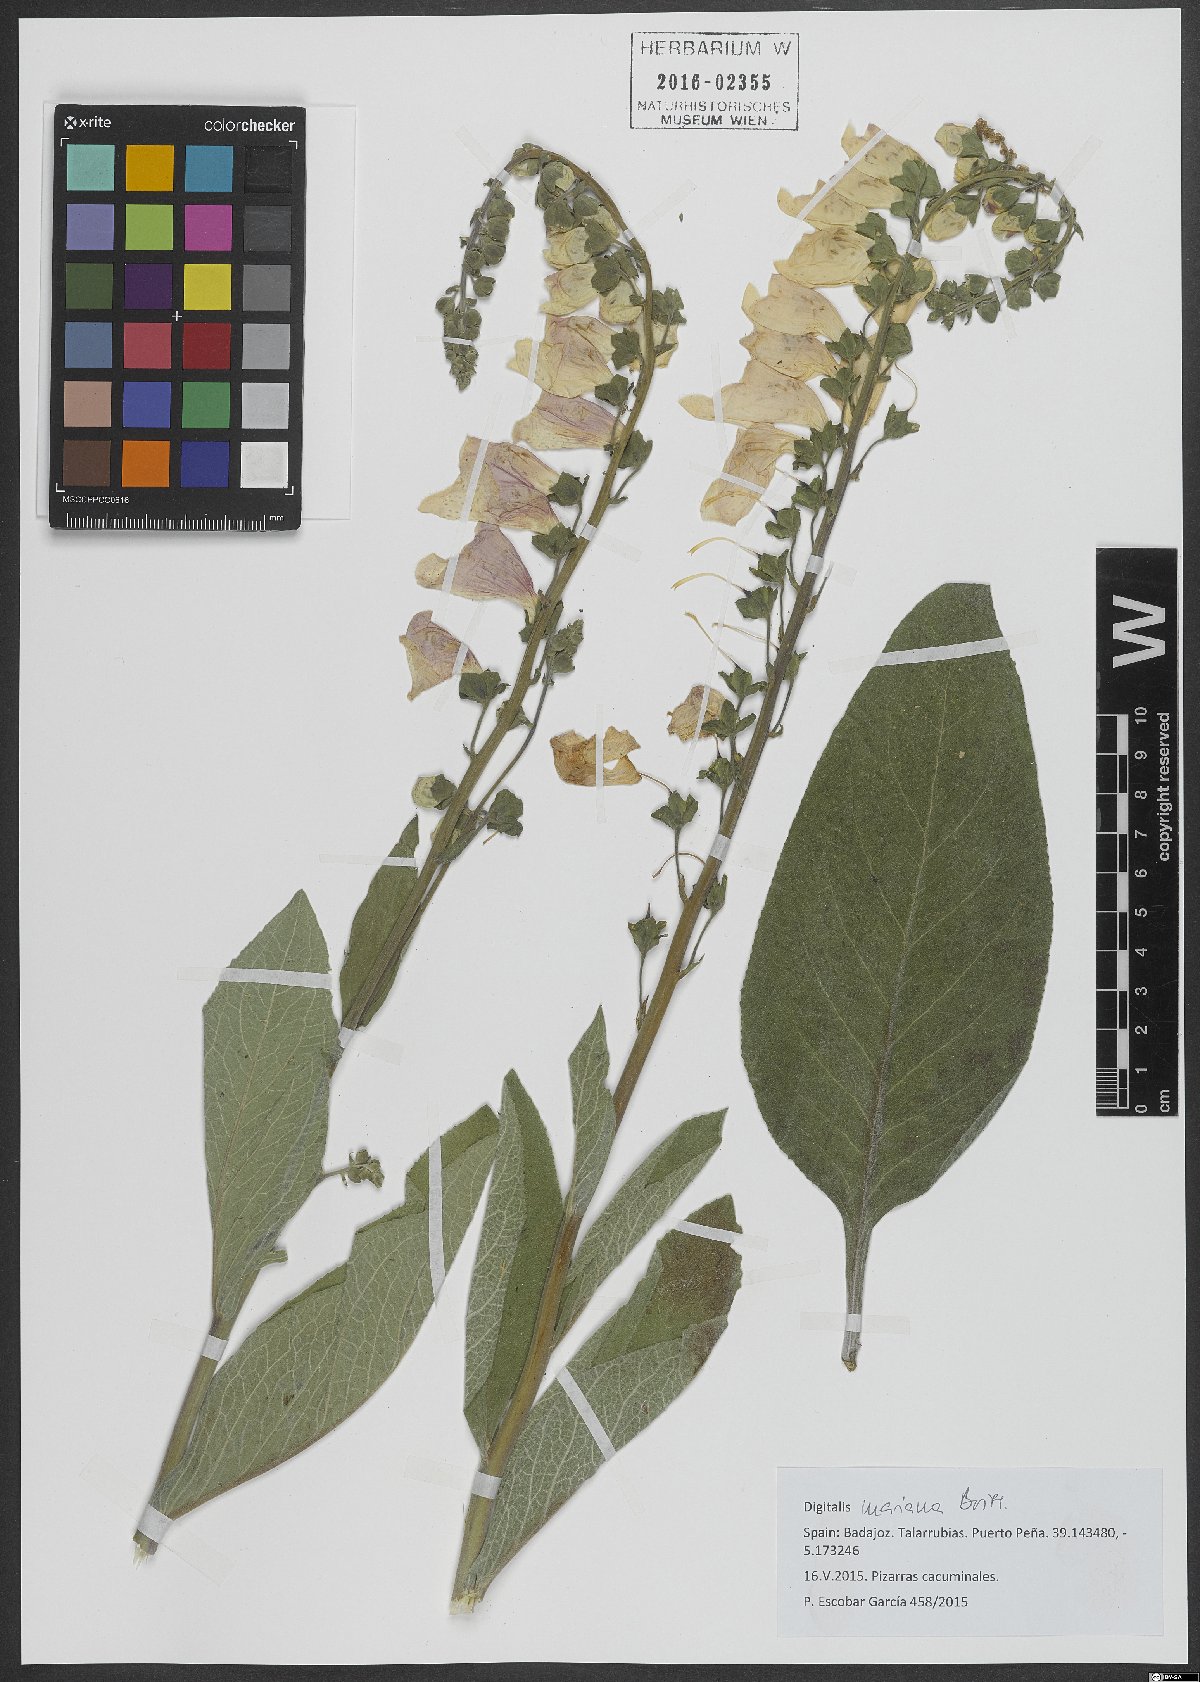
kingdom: Plantae
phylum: Tracheophyta
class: Magnoliopsida
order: Lamiales
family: Plantaginaceae
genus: Digitalis
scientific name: Digitalis mariana
